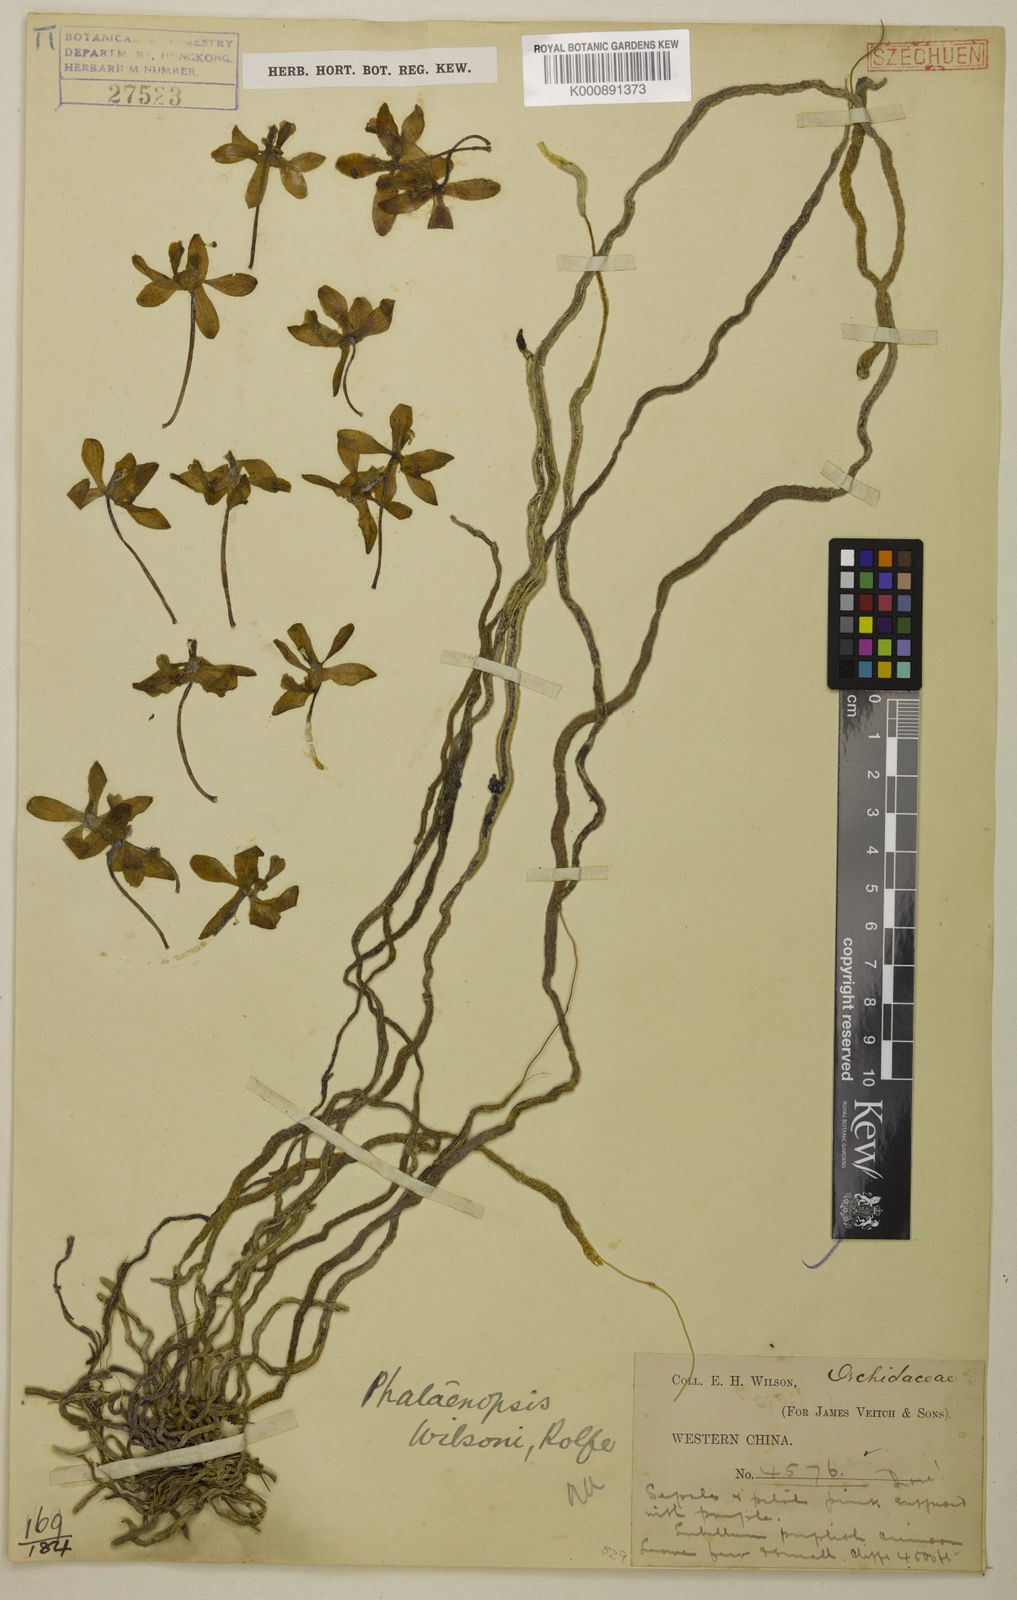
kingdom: Plantae
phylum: Tracheophyta
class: Liliopsida
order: Asparagales
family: Orchidaceae
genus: Phalaenopsis
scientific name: Phalaenopsis wilsonii
